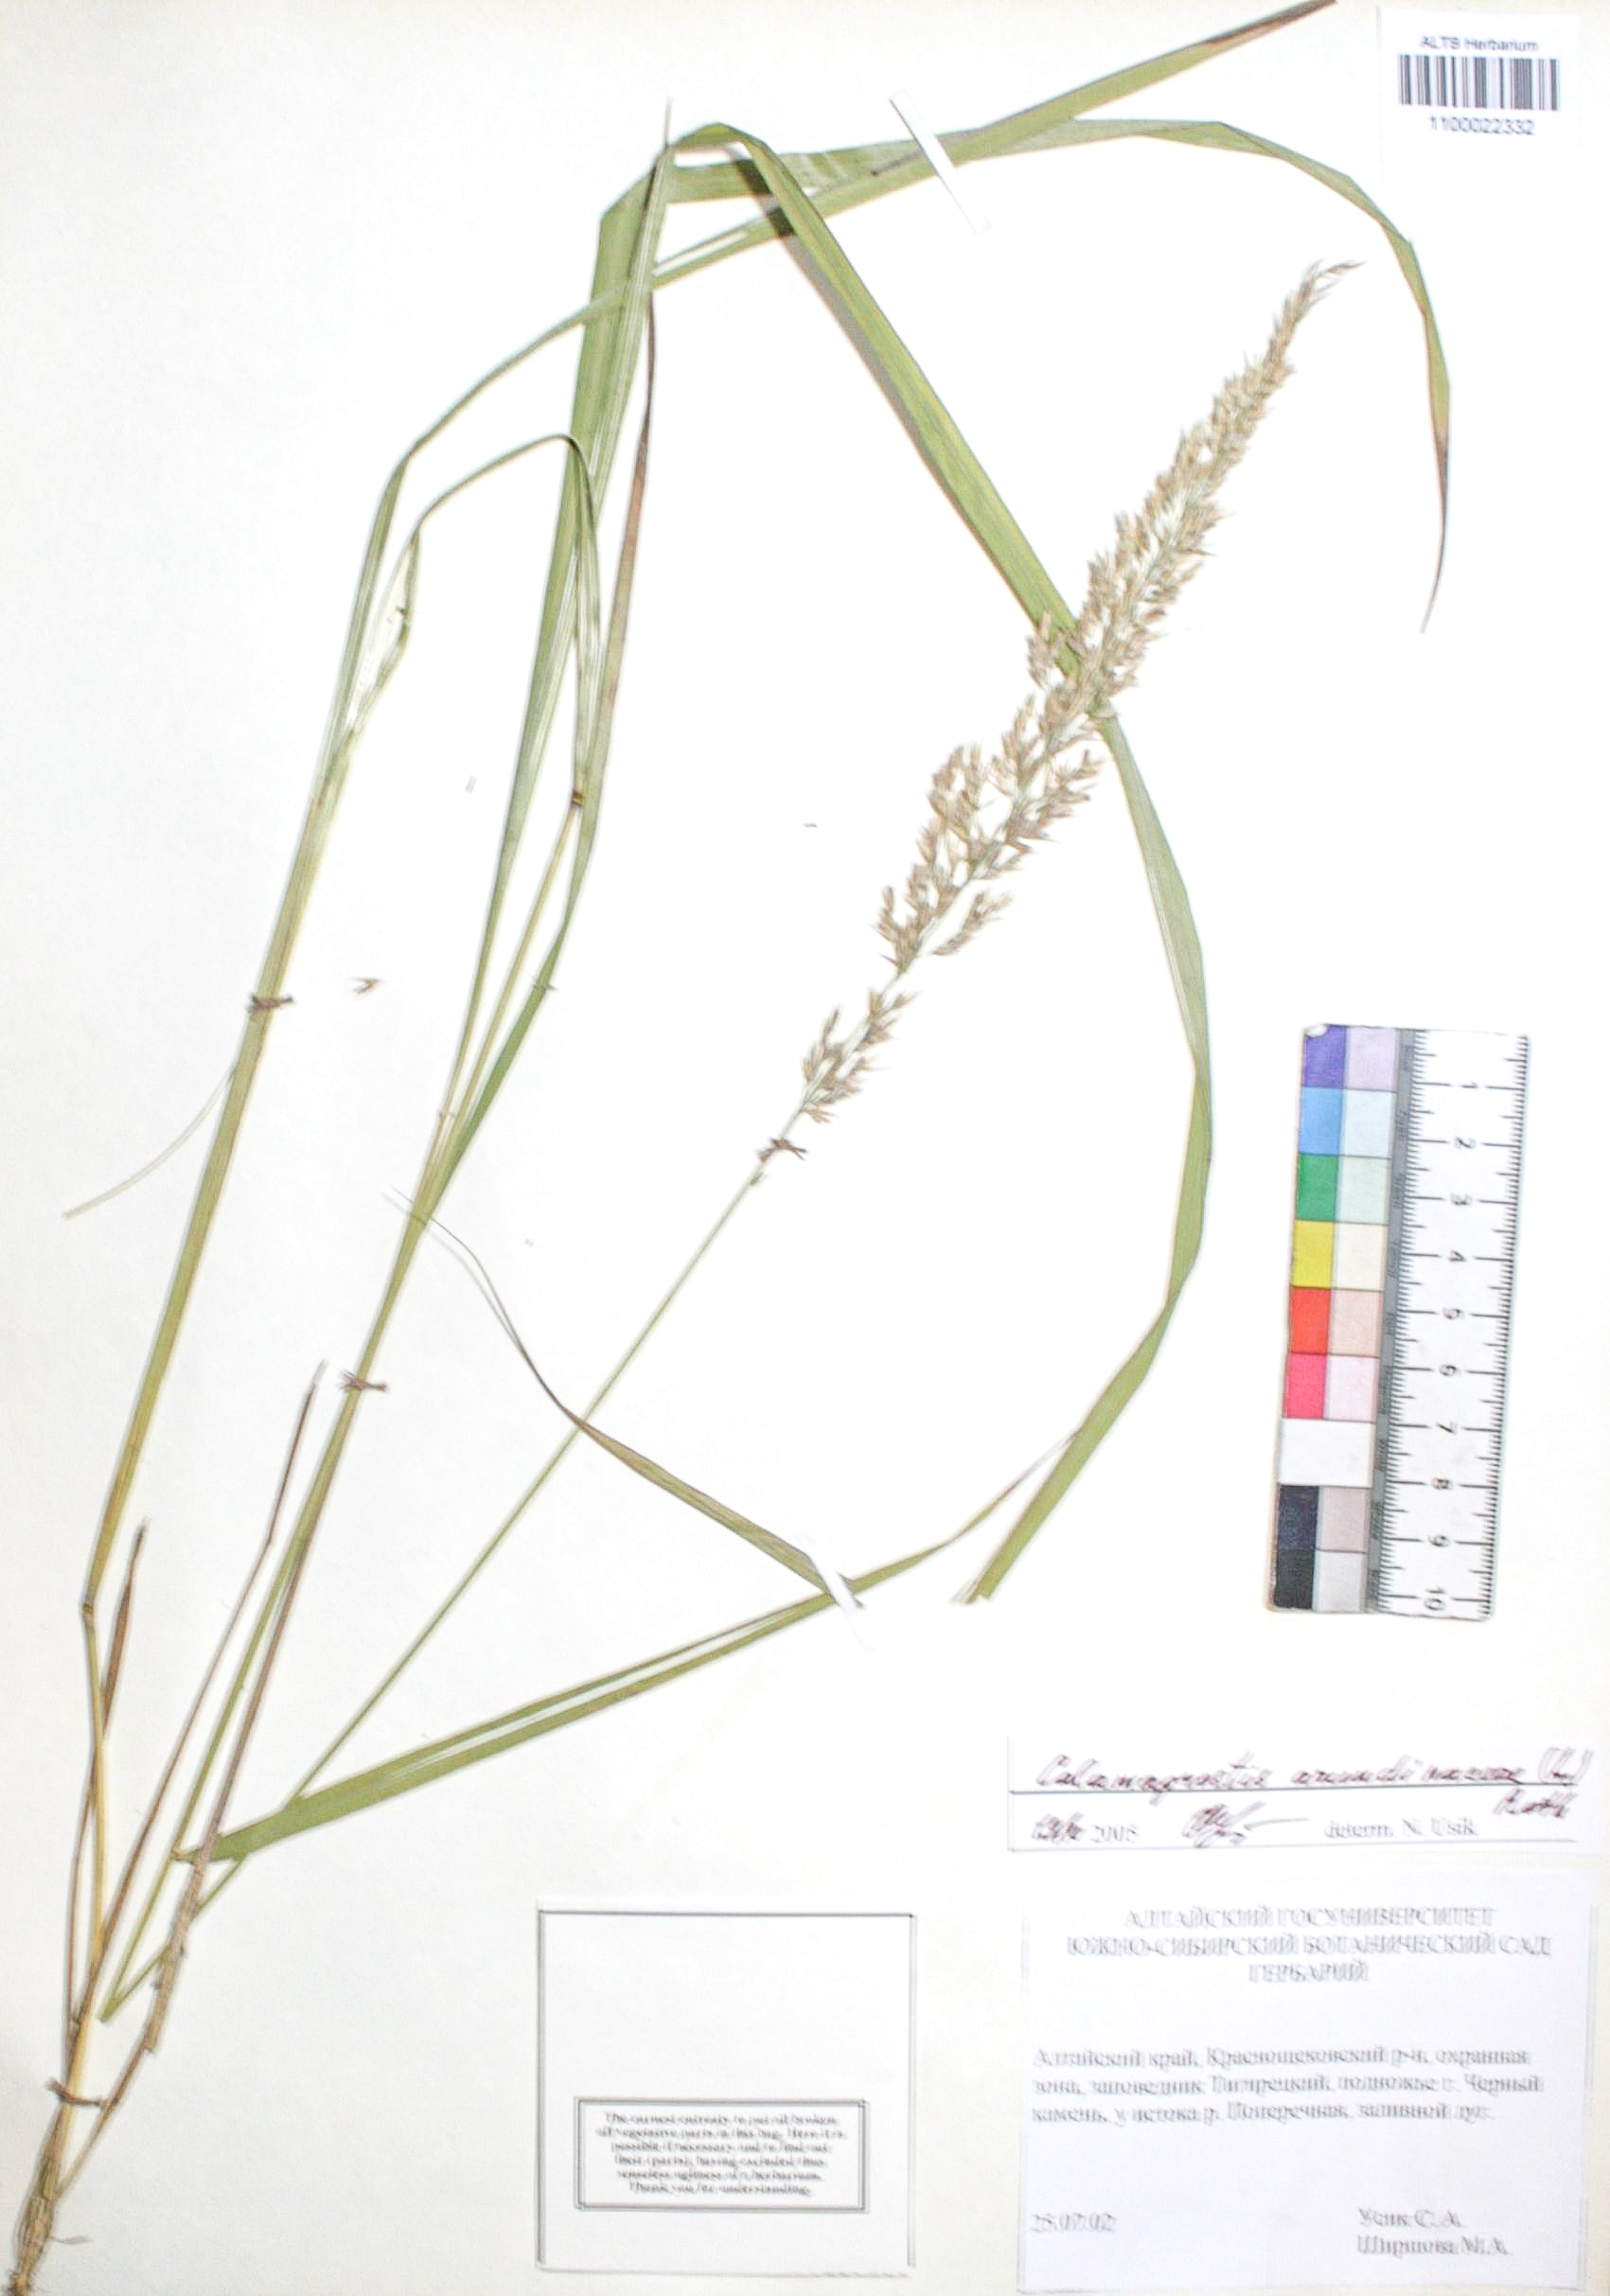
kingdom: Plantae
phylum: Tracheophyta
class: Liliopsida
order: Poales
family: Poaceae
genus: Calamagrostis
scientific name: Calamagrostis arundinacea
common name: Metskastik
